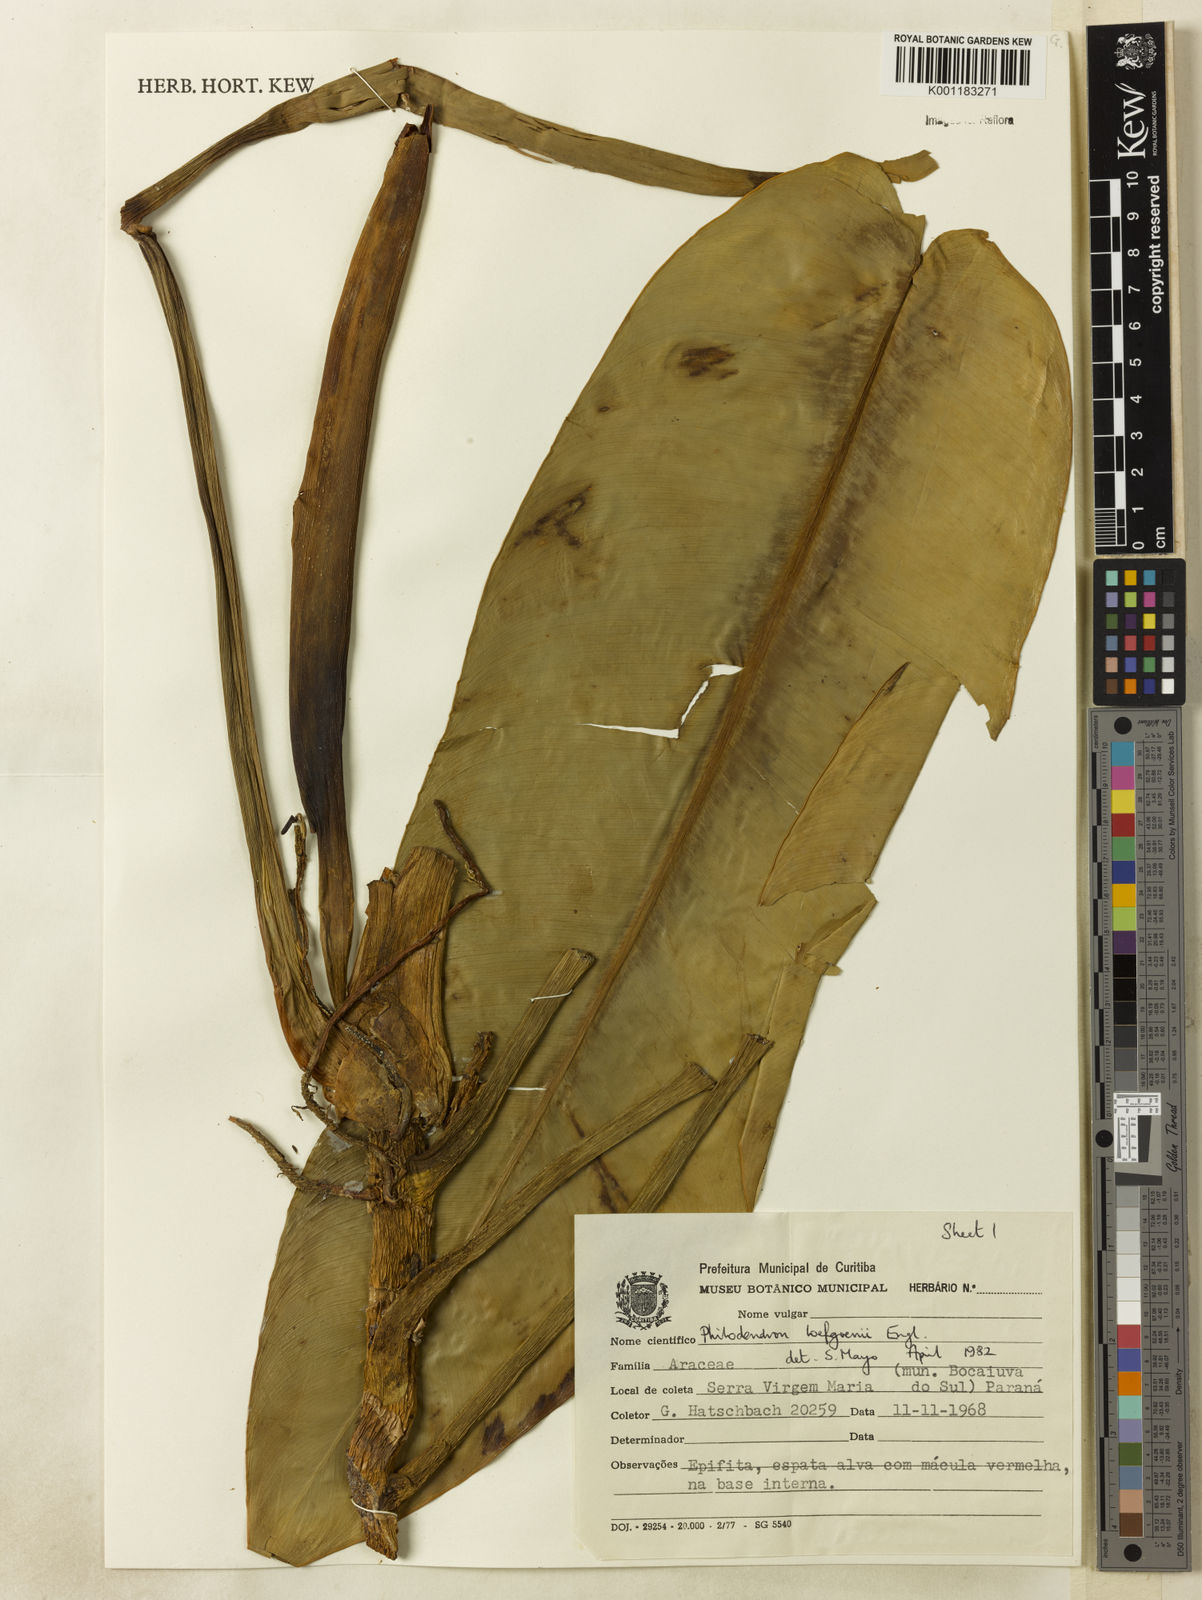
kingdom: Plantae
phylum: Tracheophyta
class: Liliopsida
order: Alismatales
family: Araceae
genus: Philodendron
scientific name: Philodendron loefgrenii
